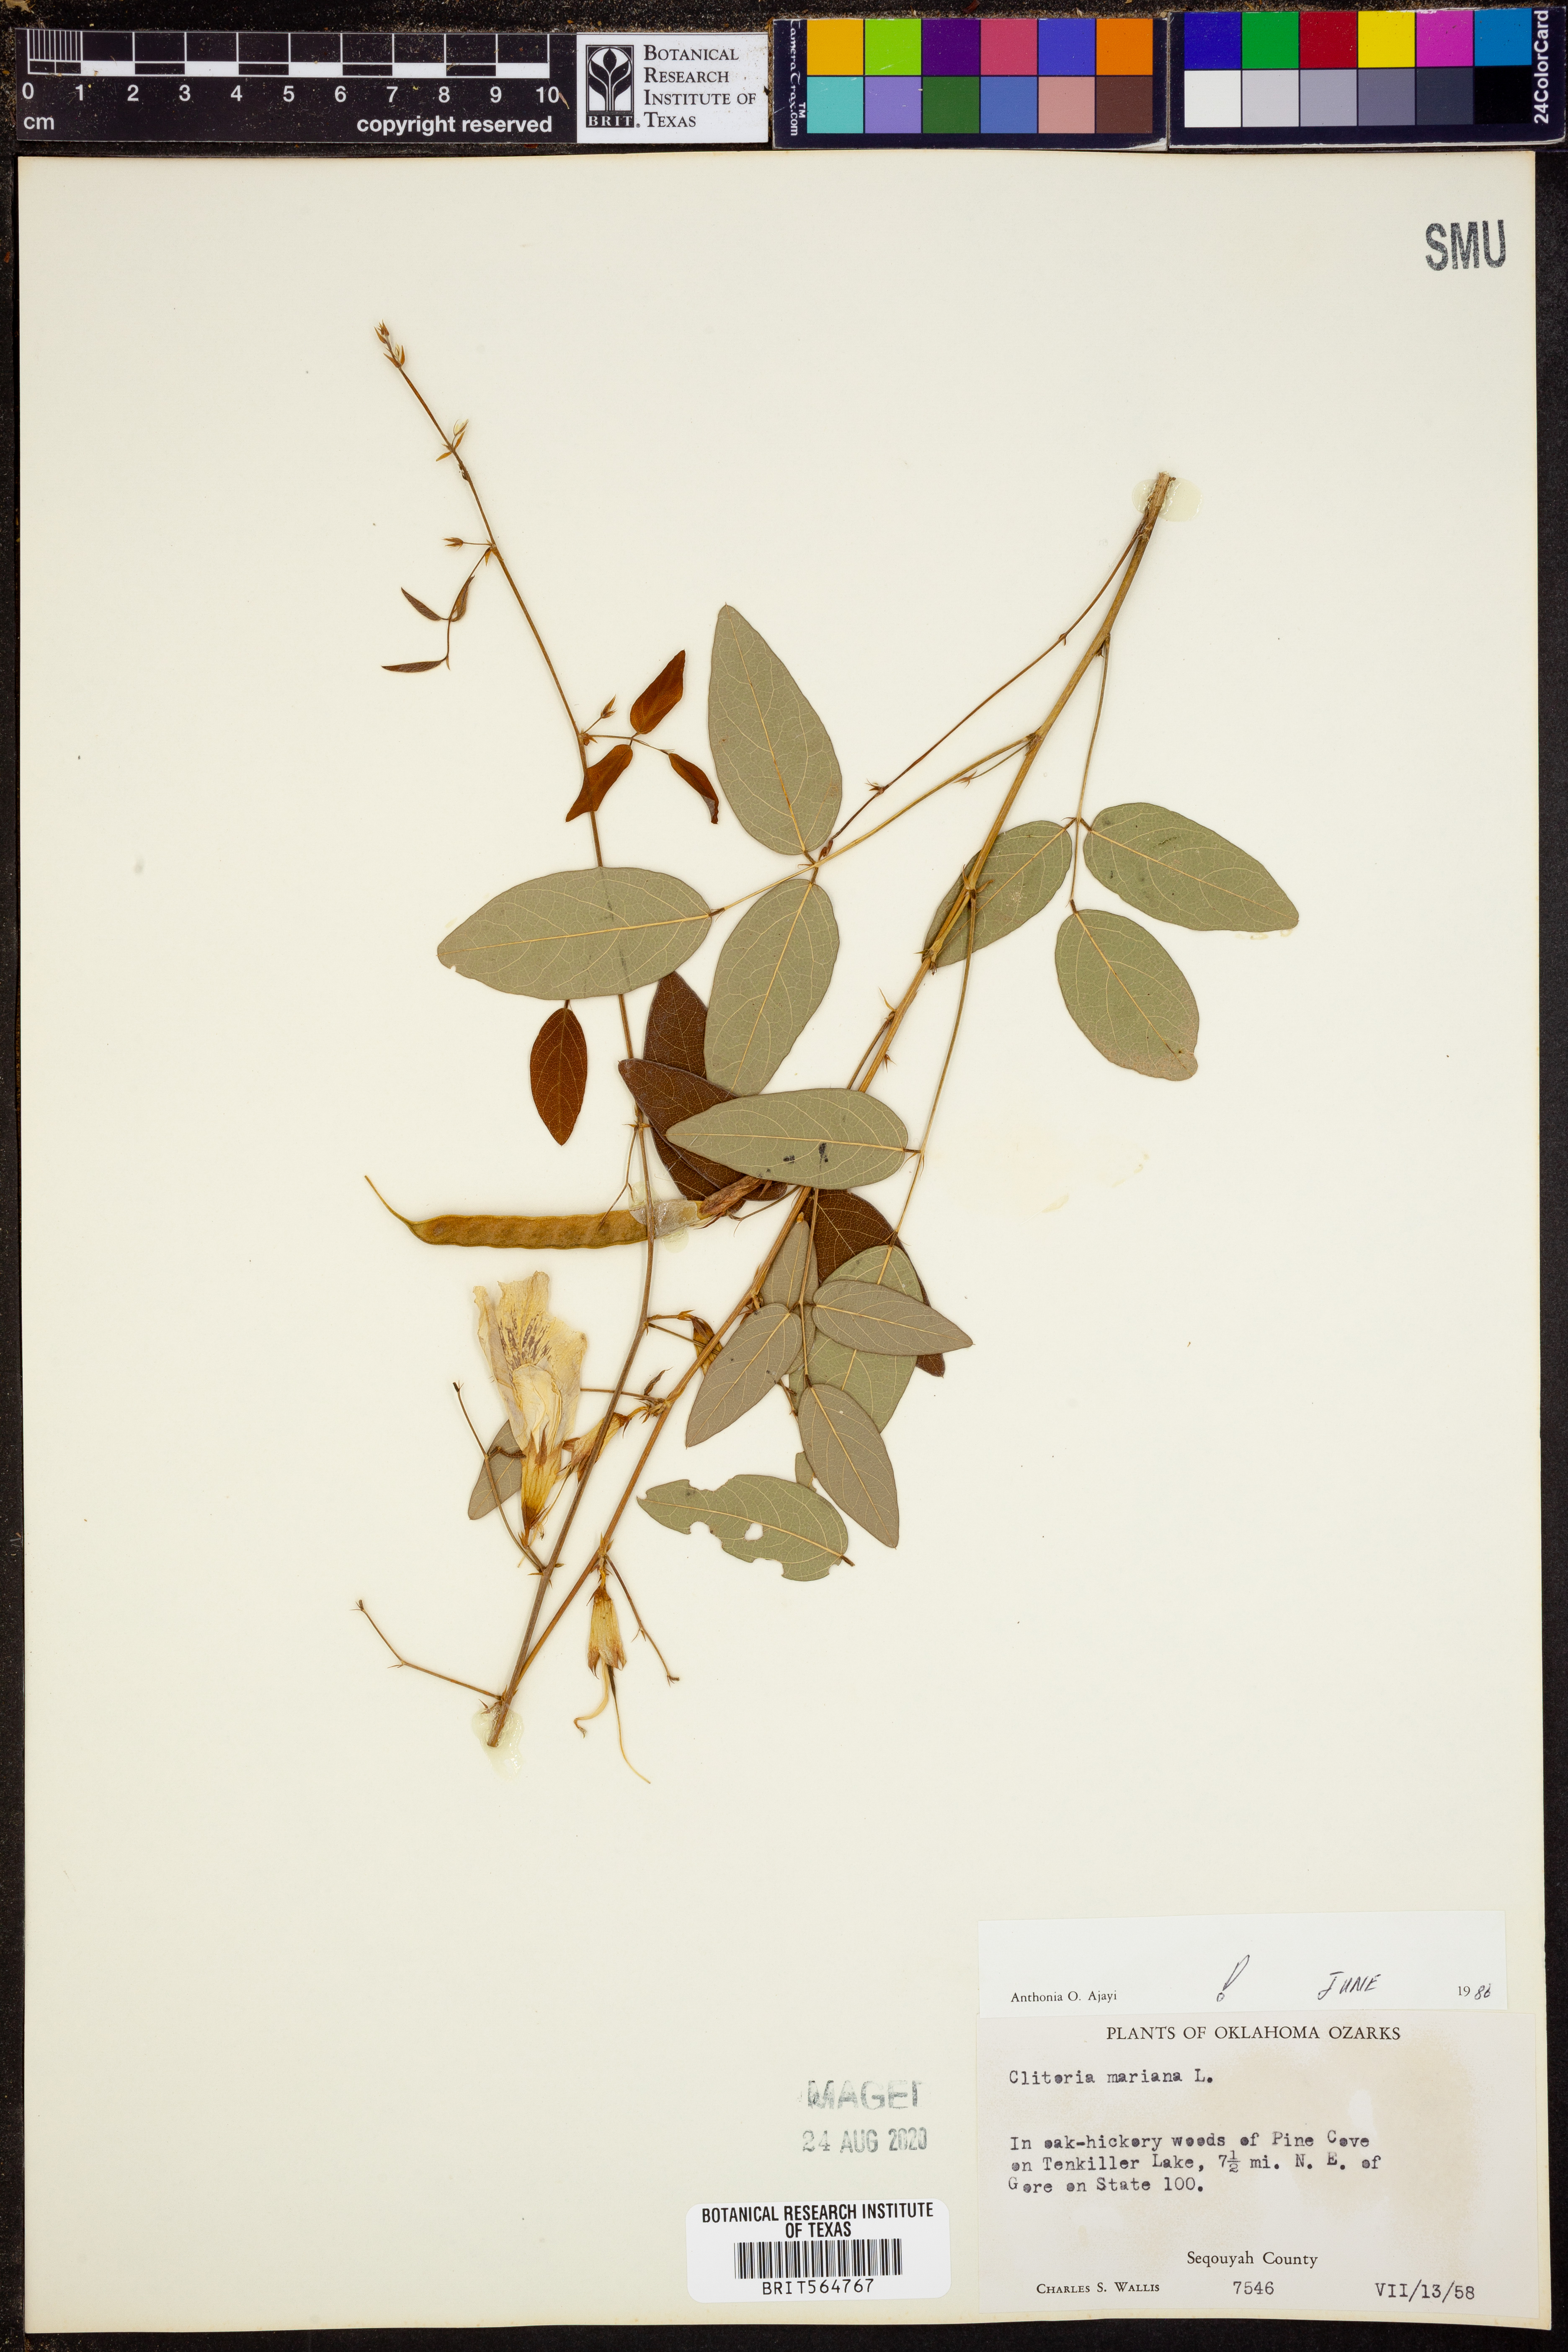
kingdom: Plantae
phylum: Tracheophyta
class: Magnoliopsida
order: Fabales
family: Fabaceae
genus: Clitoria
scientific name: Clitoria mariana
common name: Butterfly-pea
